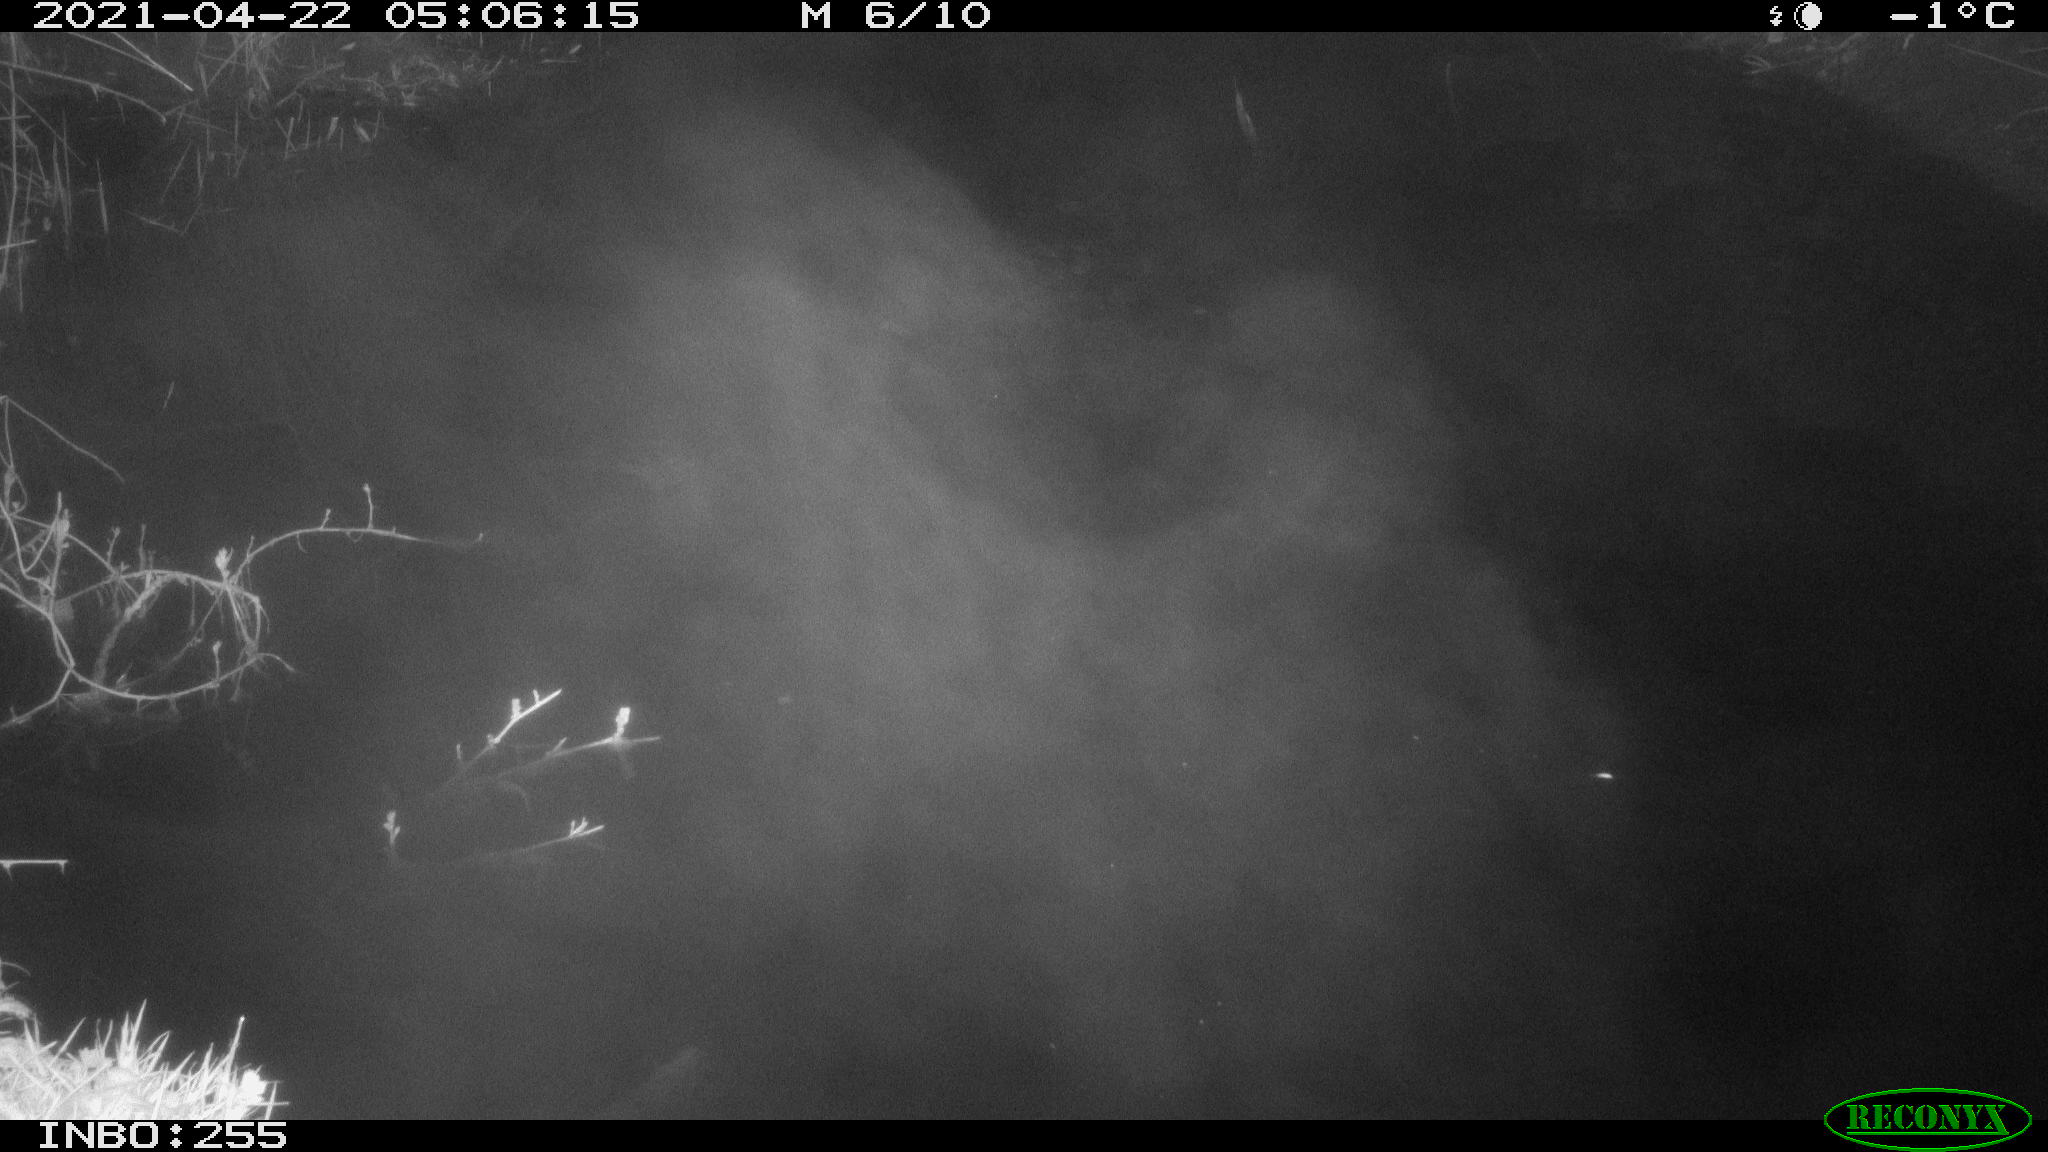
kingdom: Animalia
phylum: Chordata
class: Aves
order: Anseriformes
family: Anatidae
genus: Anas
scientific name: Anas platyrhynchos
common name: Mallard
